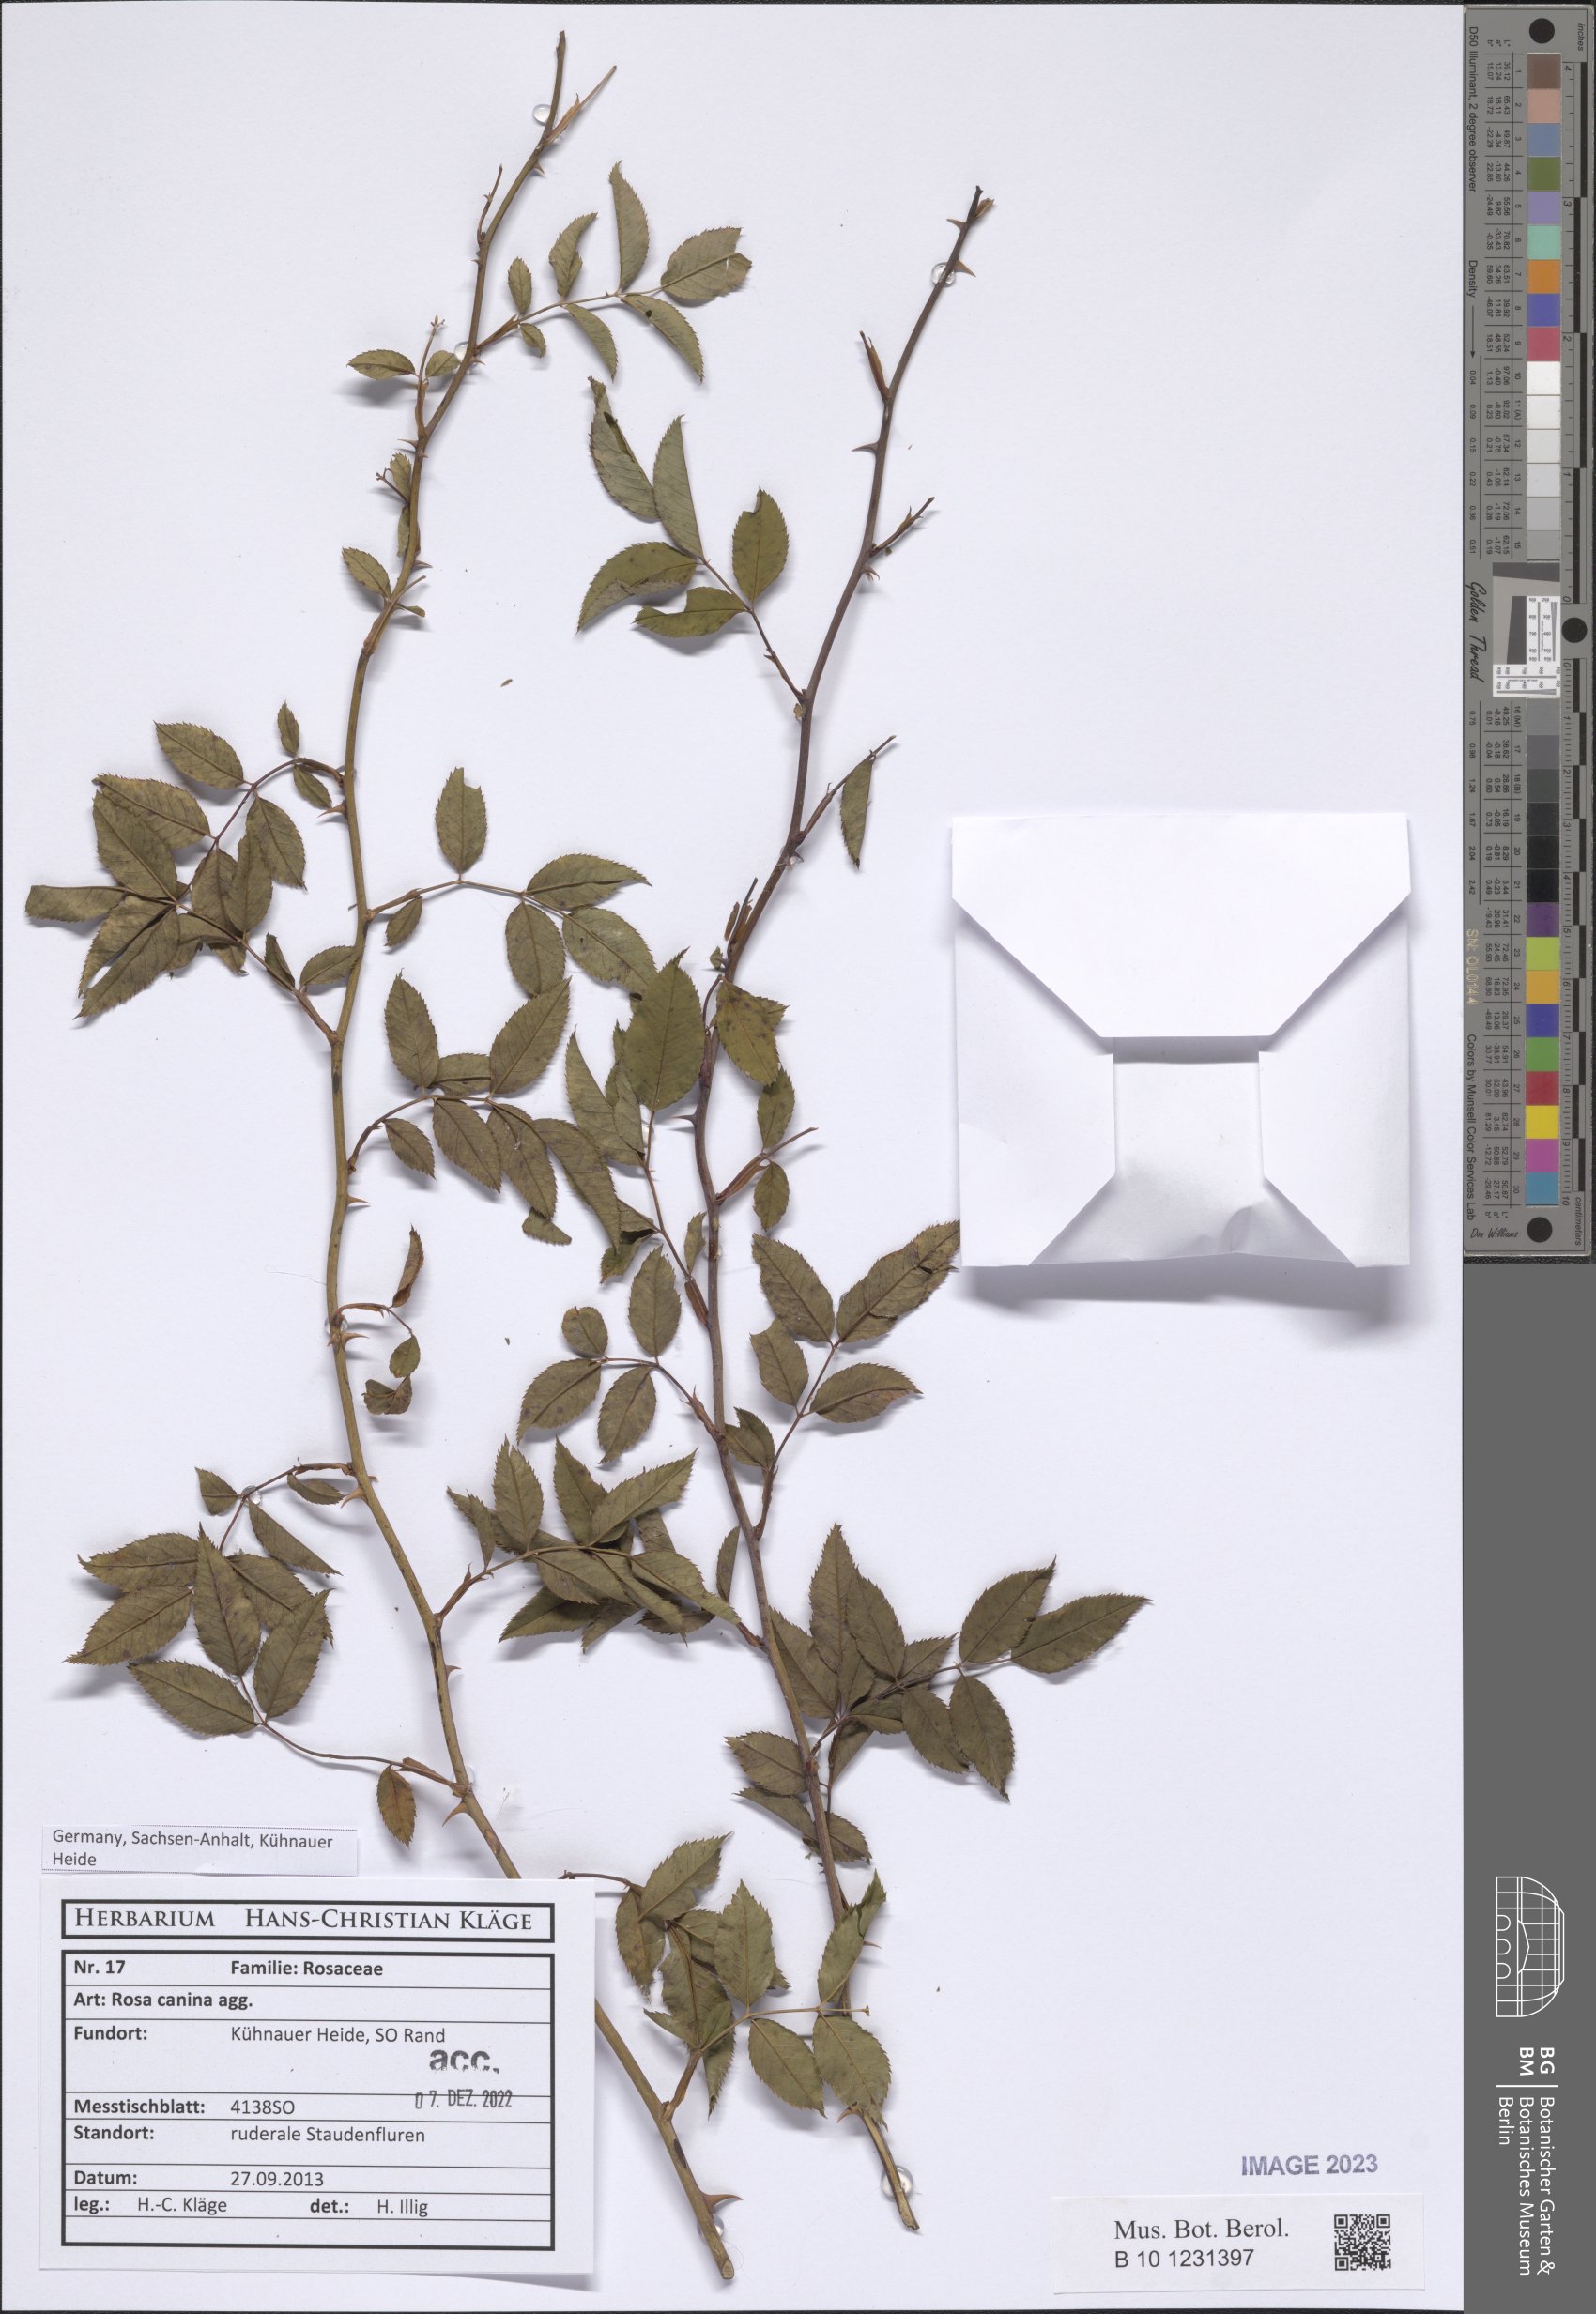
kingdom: Plantae
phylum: Tracheophyta
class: Magnoliopsida
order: Rosales
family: Rosaceae
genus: Rosa
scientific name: Rosa canina
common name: Dog rose
